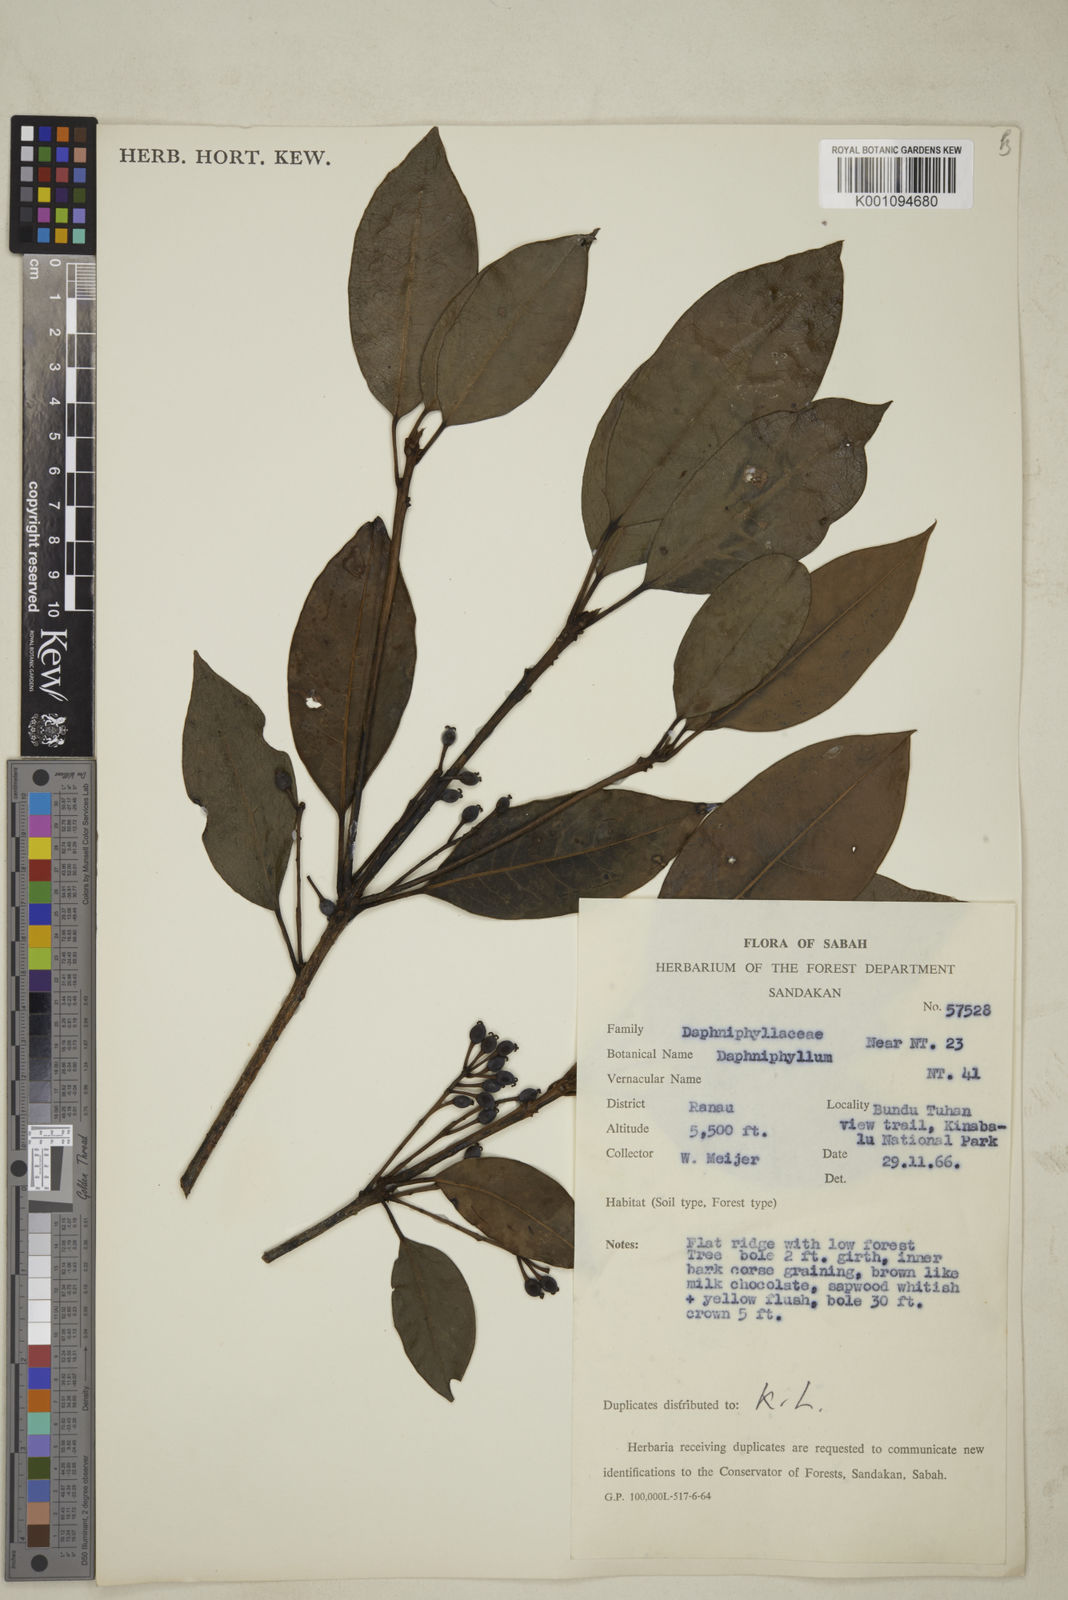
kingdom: Plantae
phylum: Tracheophyta
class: Magnoliopsida
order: Saxifragales
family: Daphniphyllaceae
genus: Daphniphyllum
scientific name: Daphniphyllum borneense
